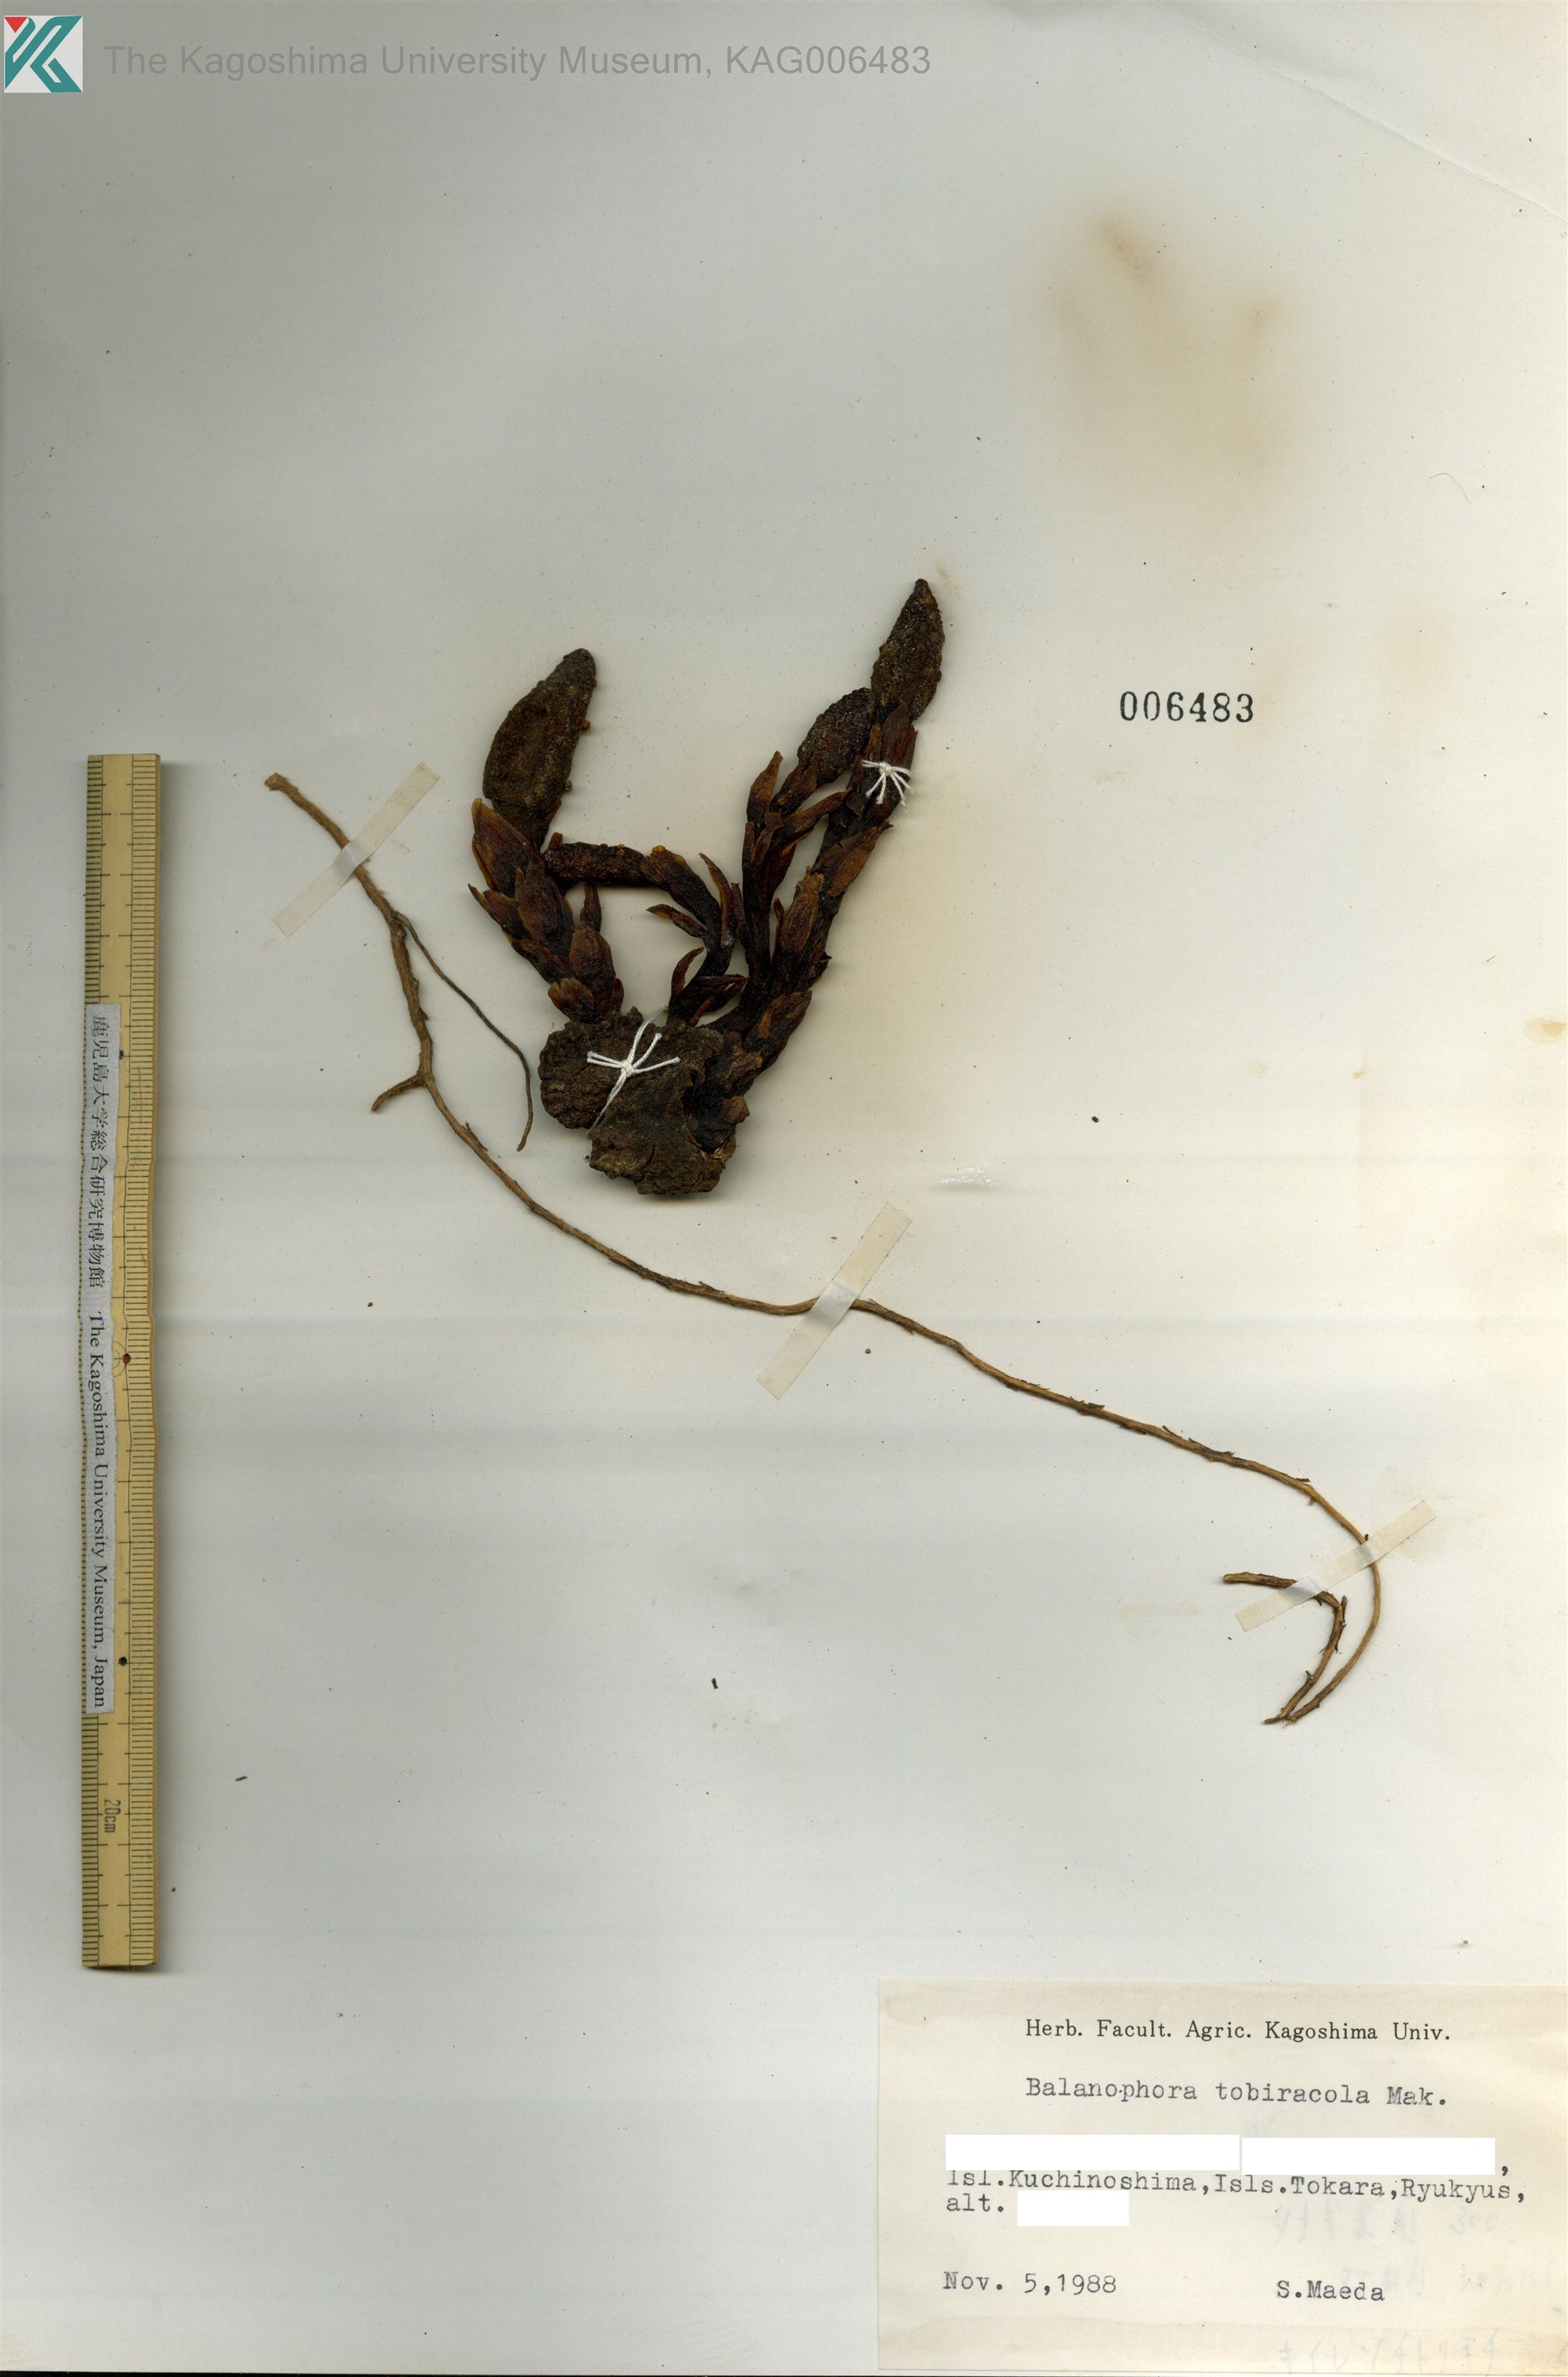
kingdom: Plantae
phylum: Tracheophyta
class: Magnoliopsida
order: Santalales
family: Balanophoraceae
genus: Balanophora
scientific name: Balanophora tobiracola
